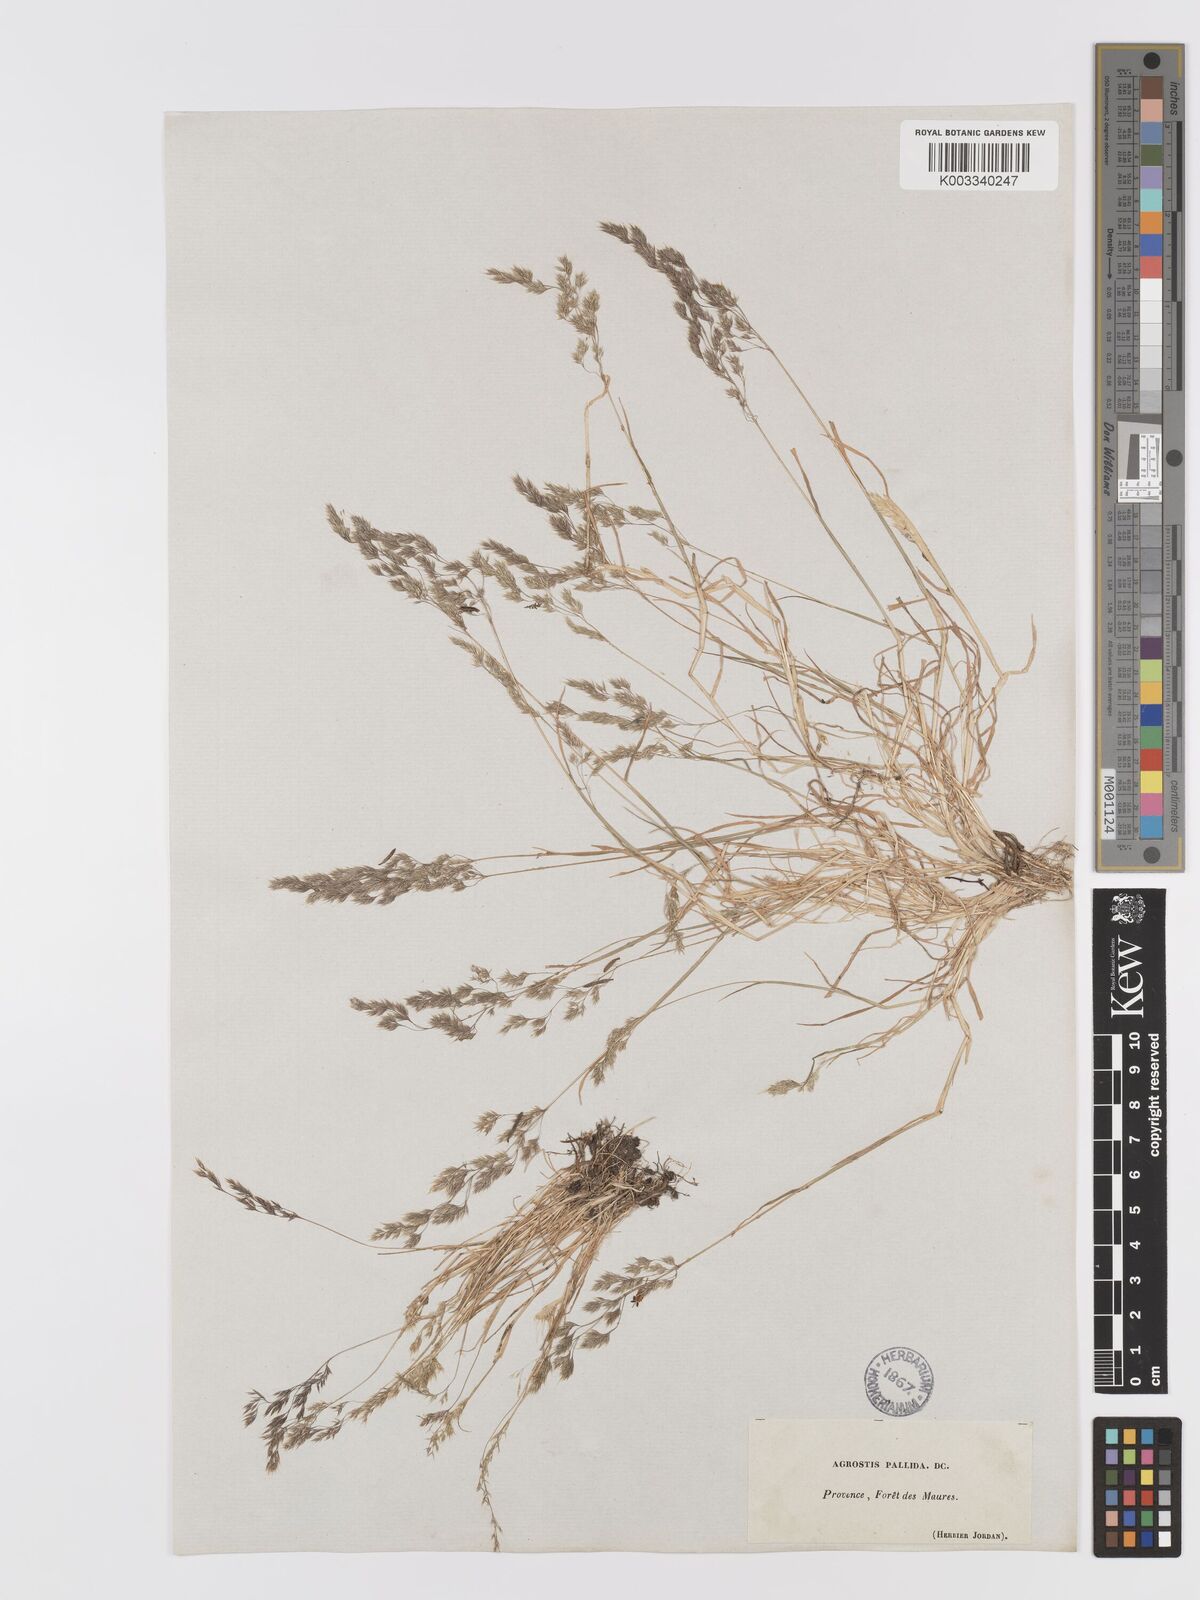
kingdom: Plantae
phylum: Tracheophyta
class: Liliopsida
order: Poales
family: Poaceae
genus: Agrostis
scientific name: Agrostis pourretii
